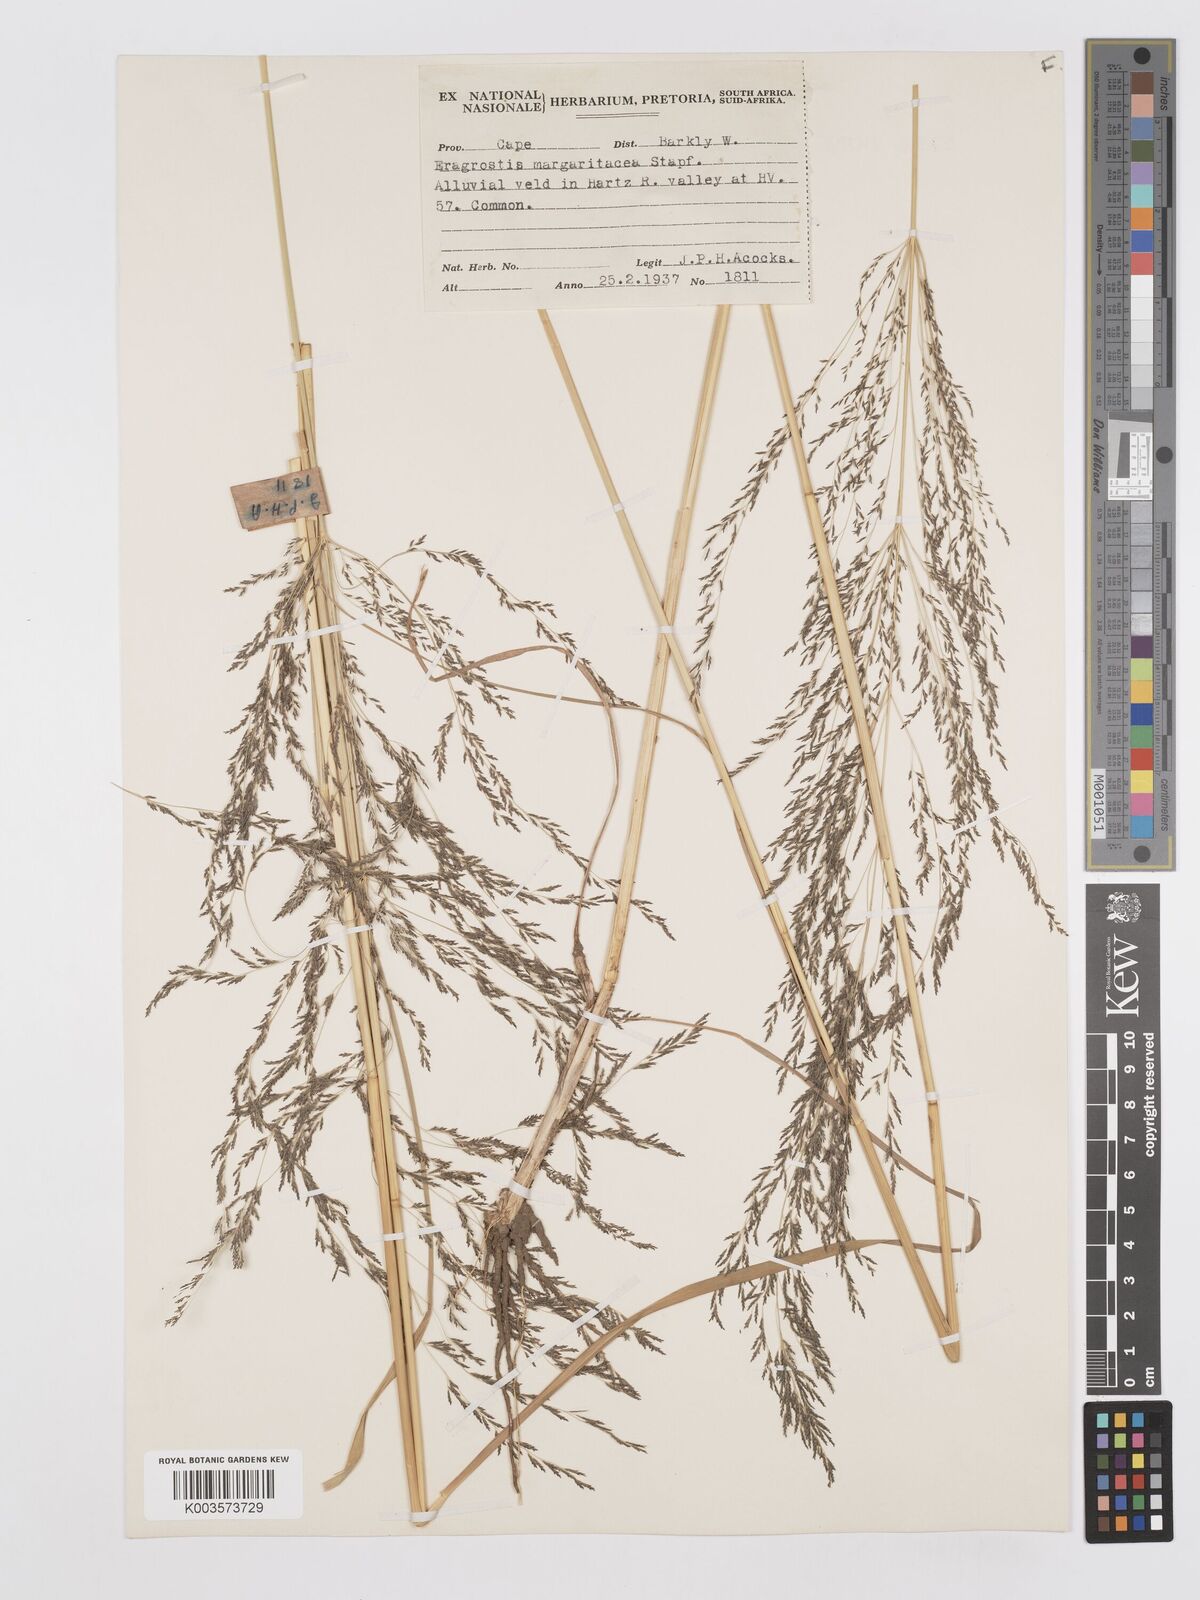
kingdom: Plantae
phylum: Tracheophyta
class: Liliopsida
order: Poales
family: Poaceae
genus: Eragrostis
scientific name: Eragrostis rotifer
